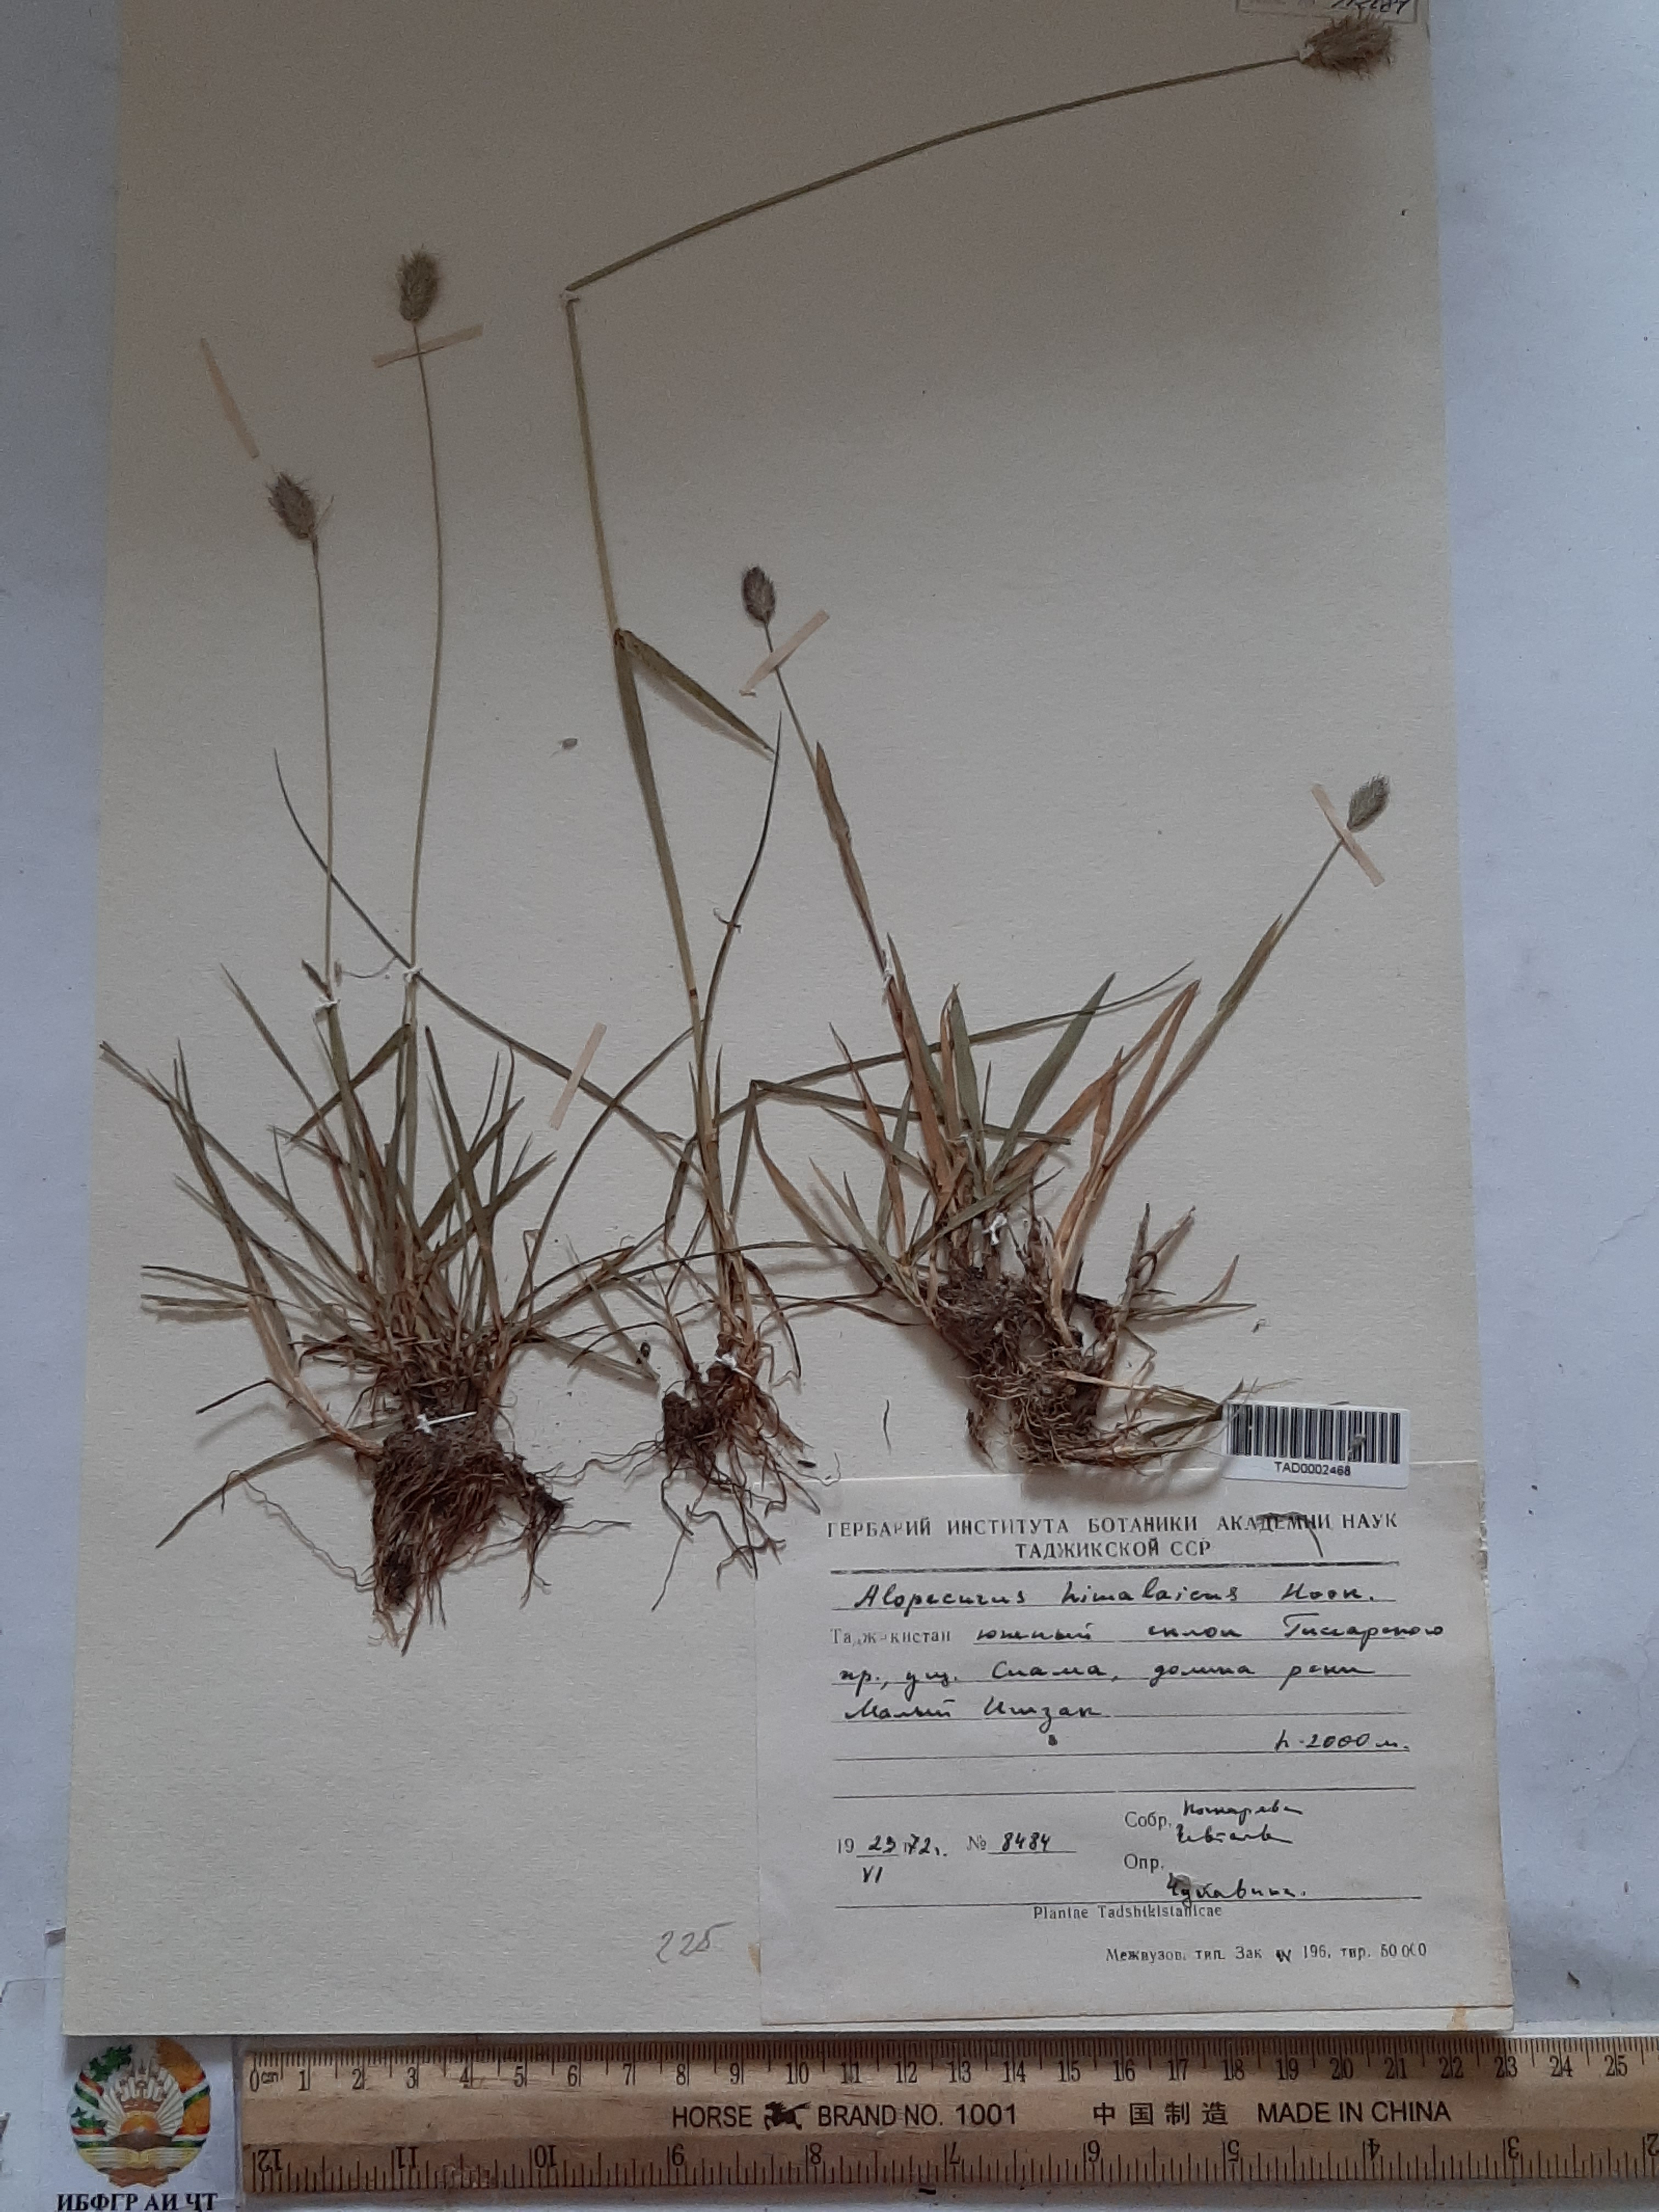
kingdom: Plantae
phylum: Tracheophyta
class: Liliopsida
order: Poales
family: Poaceae
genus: Alopecurus
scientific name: Alopecurus himalaicus
